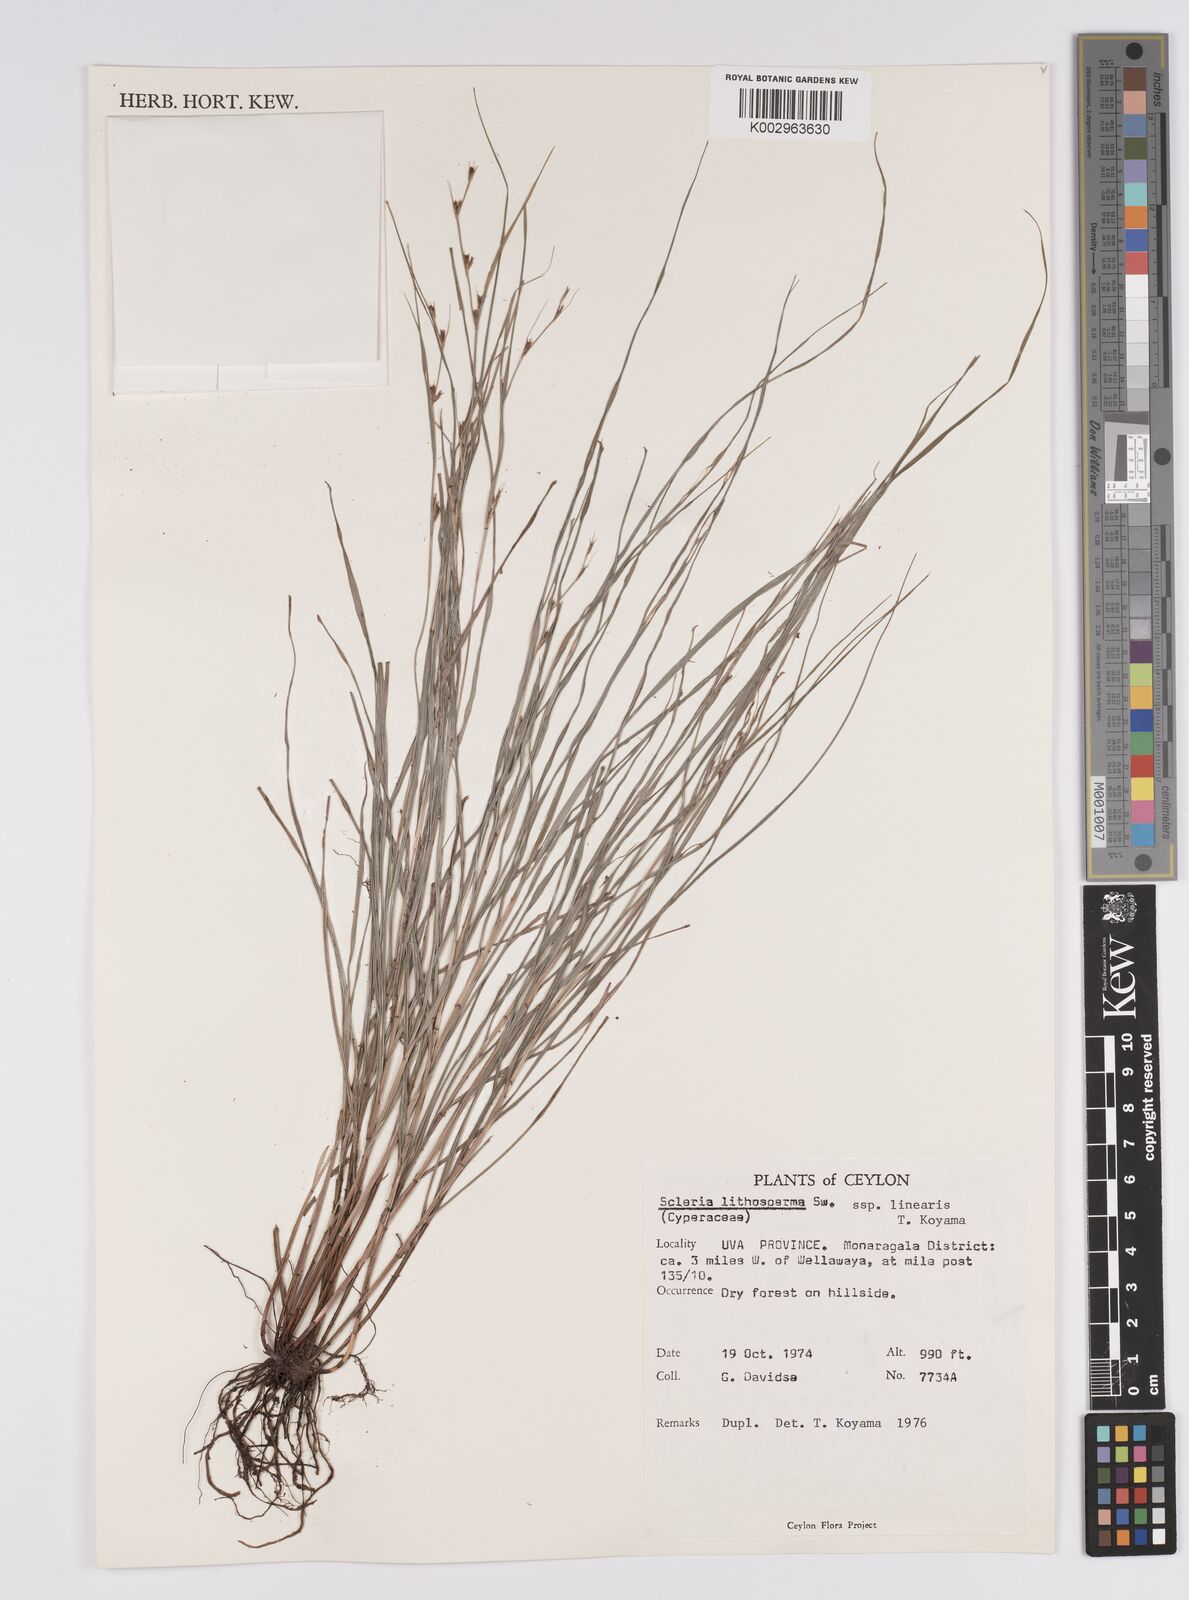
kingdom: Plantae
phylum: Tracheophyta
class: Liliopsida
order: Poales
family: Cyperaceae
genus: Scleria
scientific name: Scleria lithosperma
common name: Florida keys nut-rush
